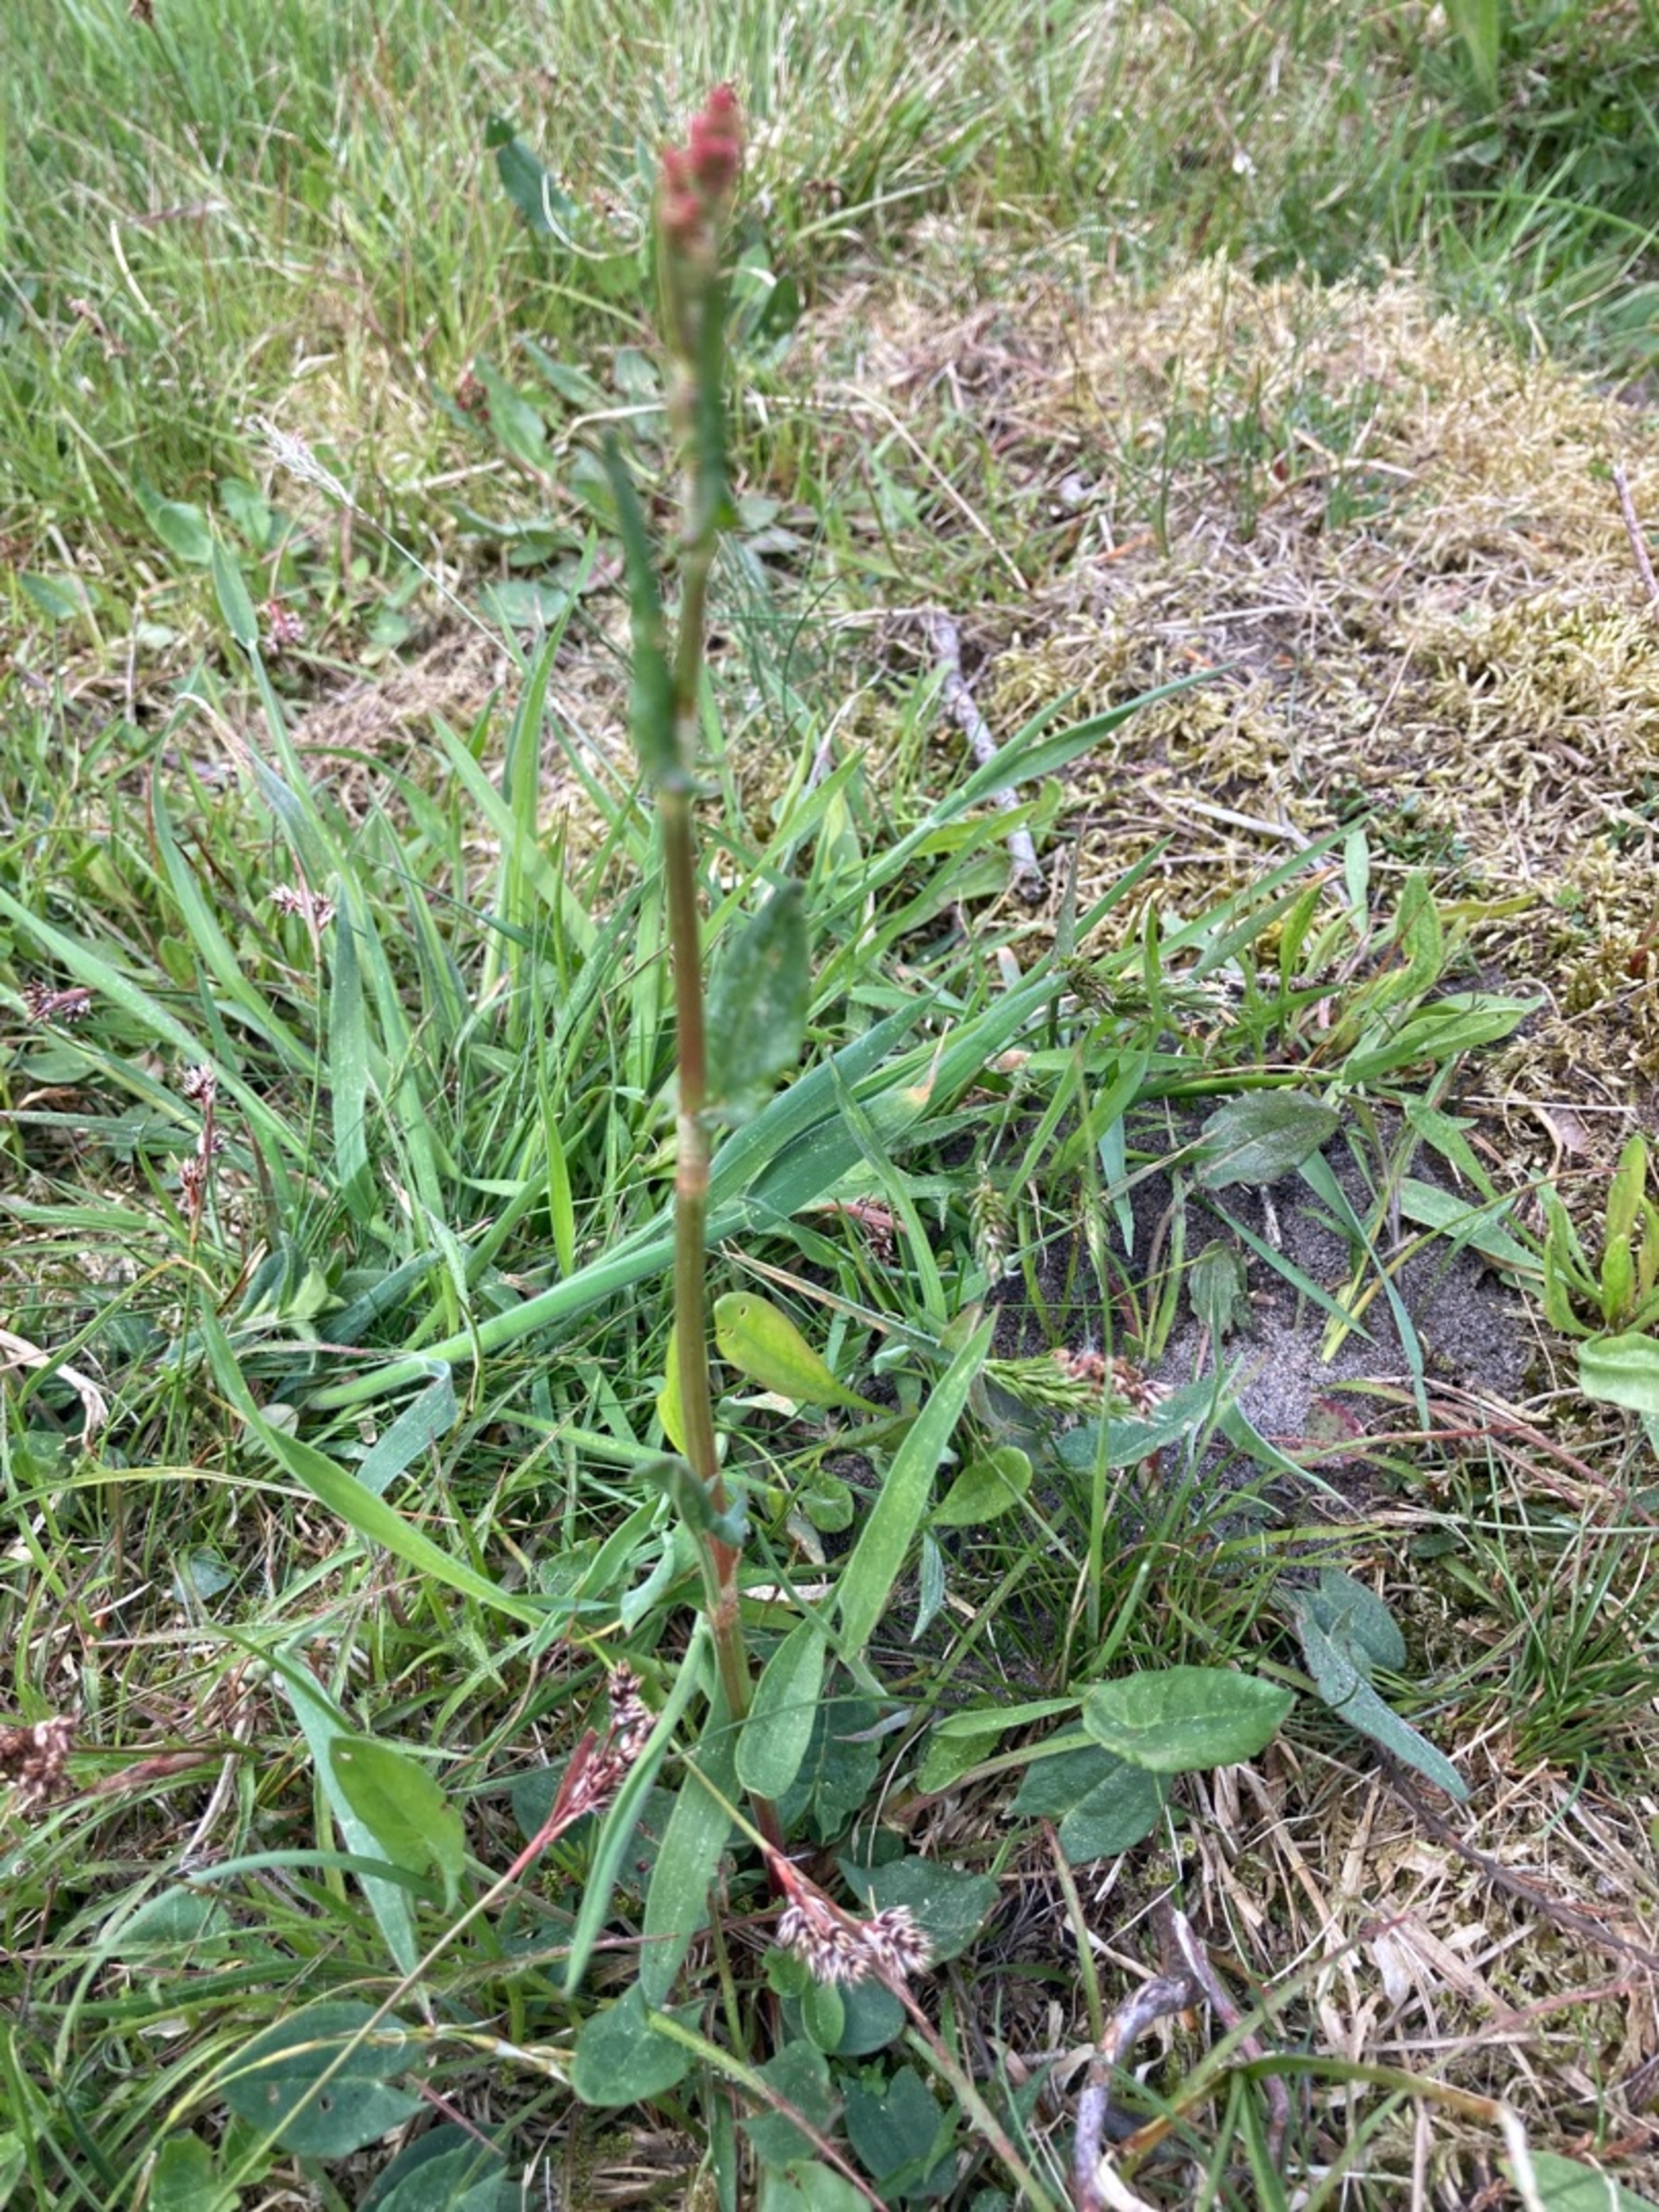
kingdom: Plantae
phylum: Tracheophyta
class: Magnoliopsida
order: Caryophyllales
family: Polygonaceae
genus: Rumex
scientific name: Rumex acetosa
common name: Almindelig syre
